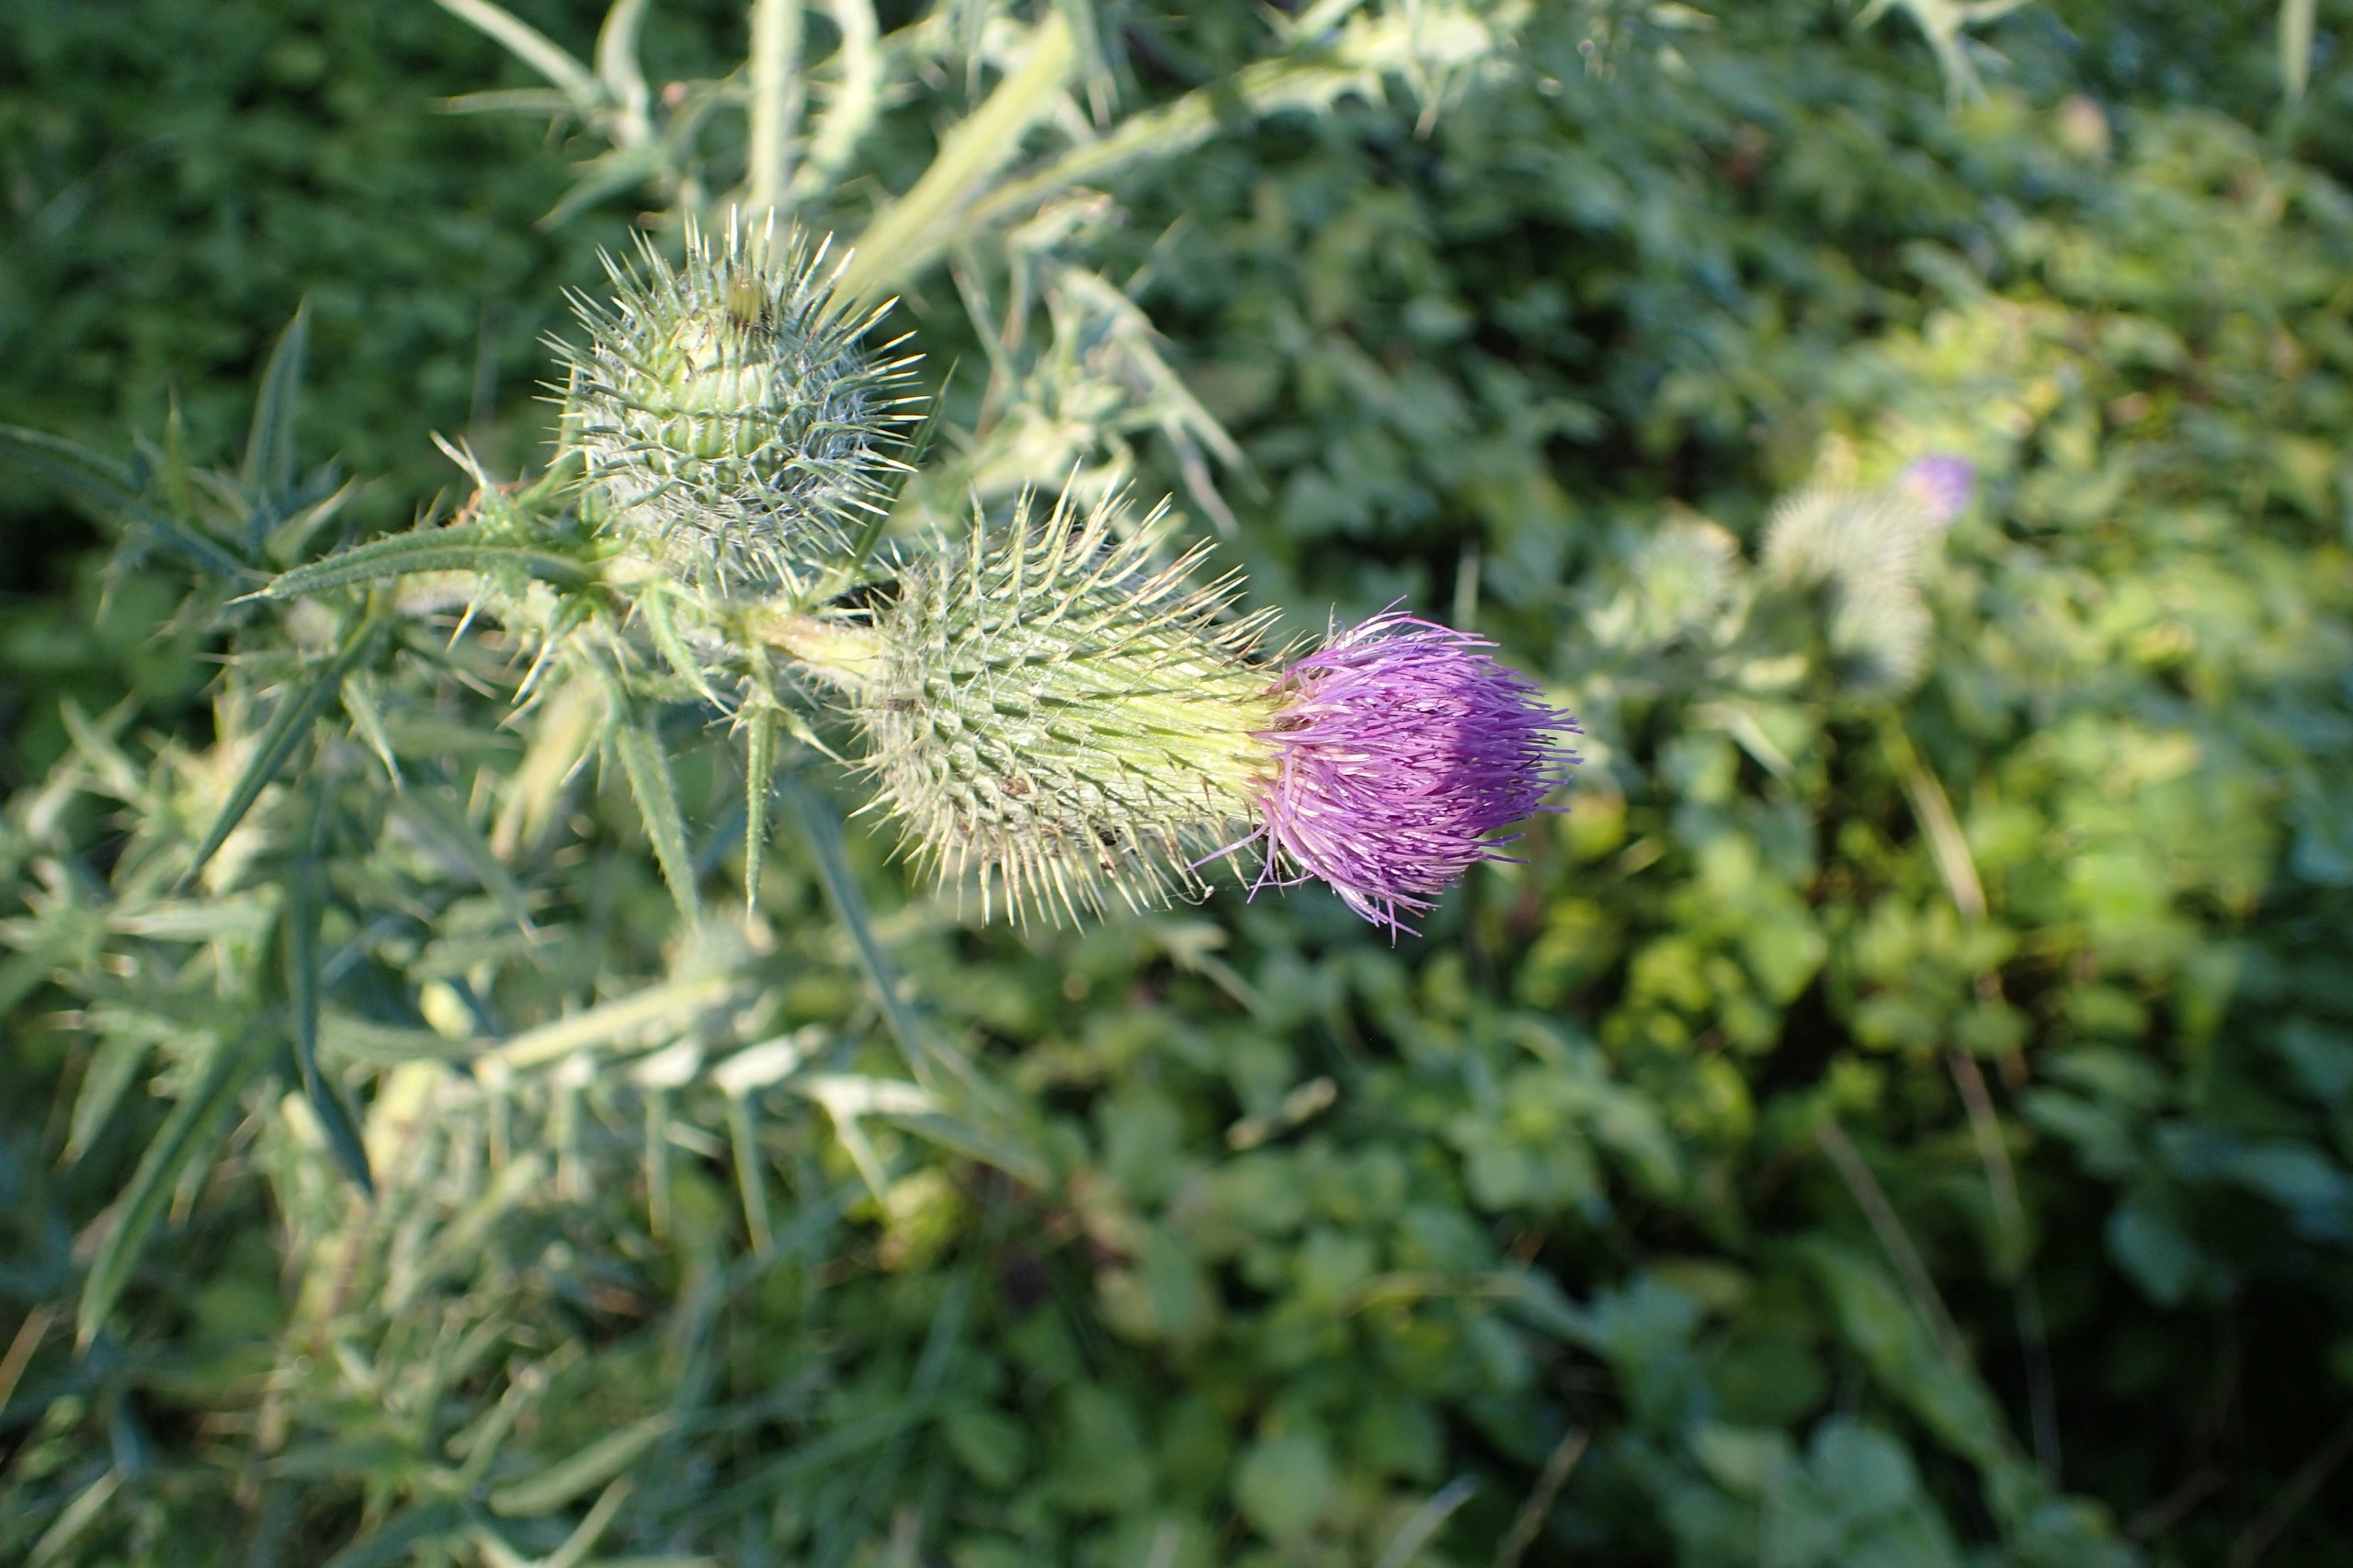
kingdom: Plantae
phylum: Tracheophyta
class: Magnoliopsida
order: Asterales
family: Asteraceae
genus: Cirsium
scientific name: Cirsium vulgare
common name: Horse-tidsel
